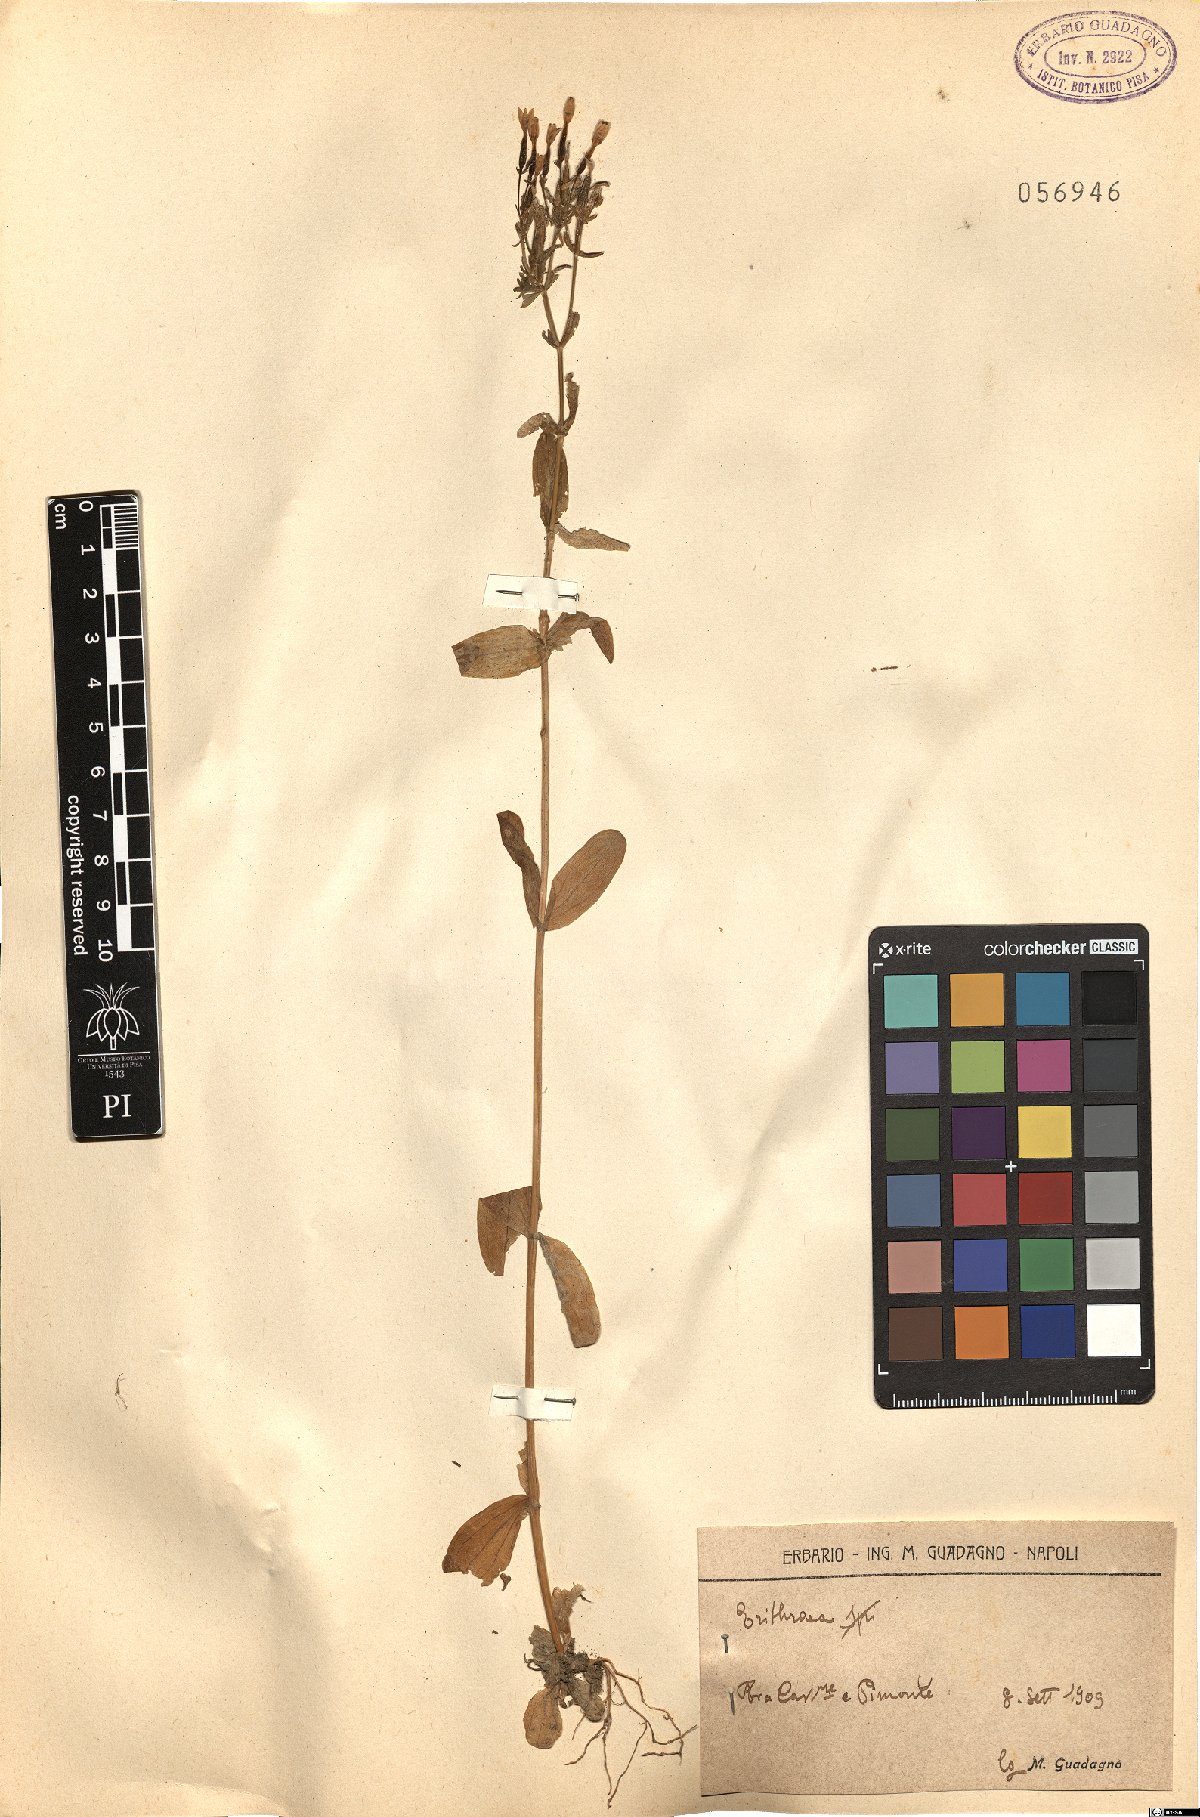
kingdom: Plantae
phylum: Tracheophyta
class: Magnoliopsida
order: Gentianales
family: Gentianaceae
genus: Erythraea
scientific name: Erythraea
